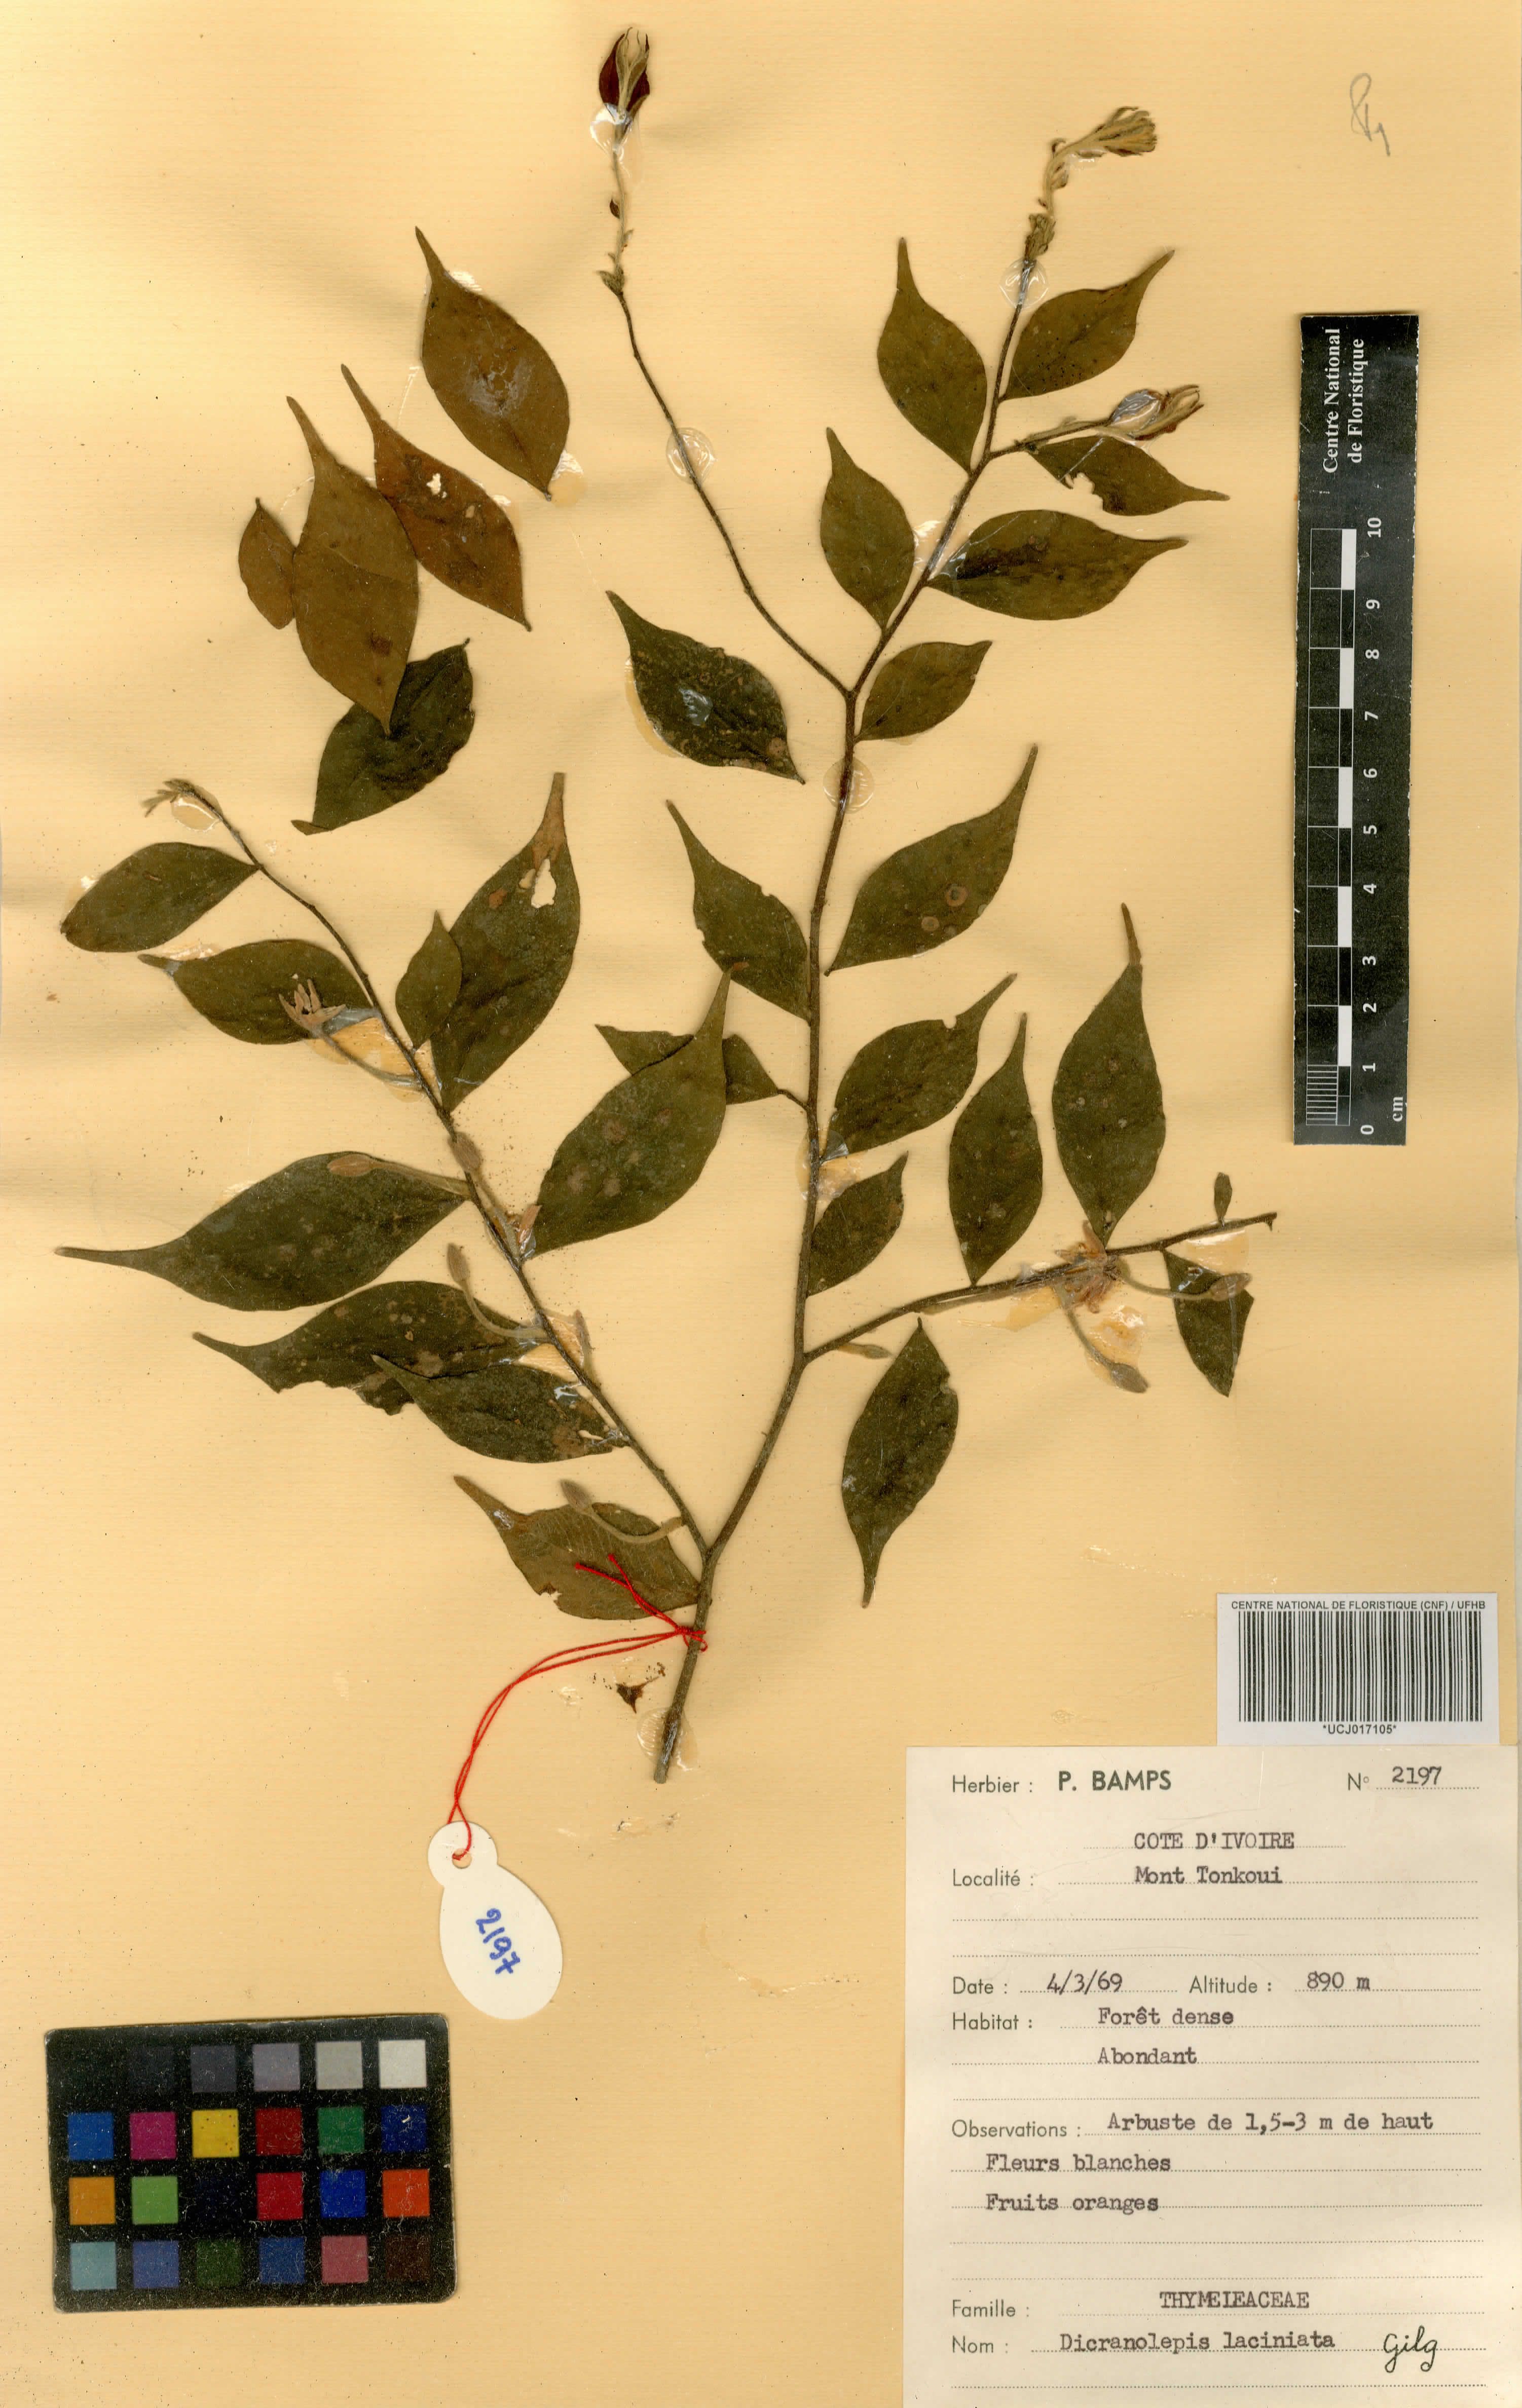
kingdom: Plantae
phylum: Tracheophyta
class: Magnoliopsida
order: Malvales
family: Thymelaeaceae
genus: Dicranolepis
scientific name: Dicranolepis laciniata
